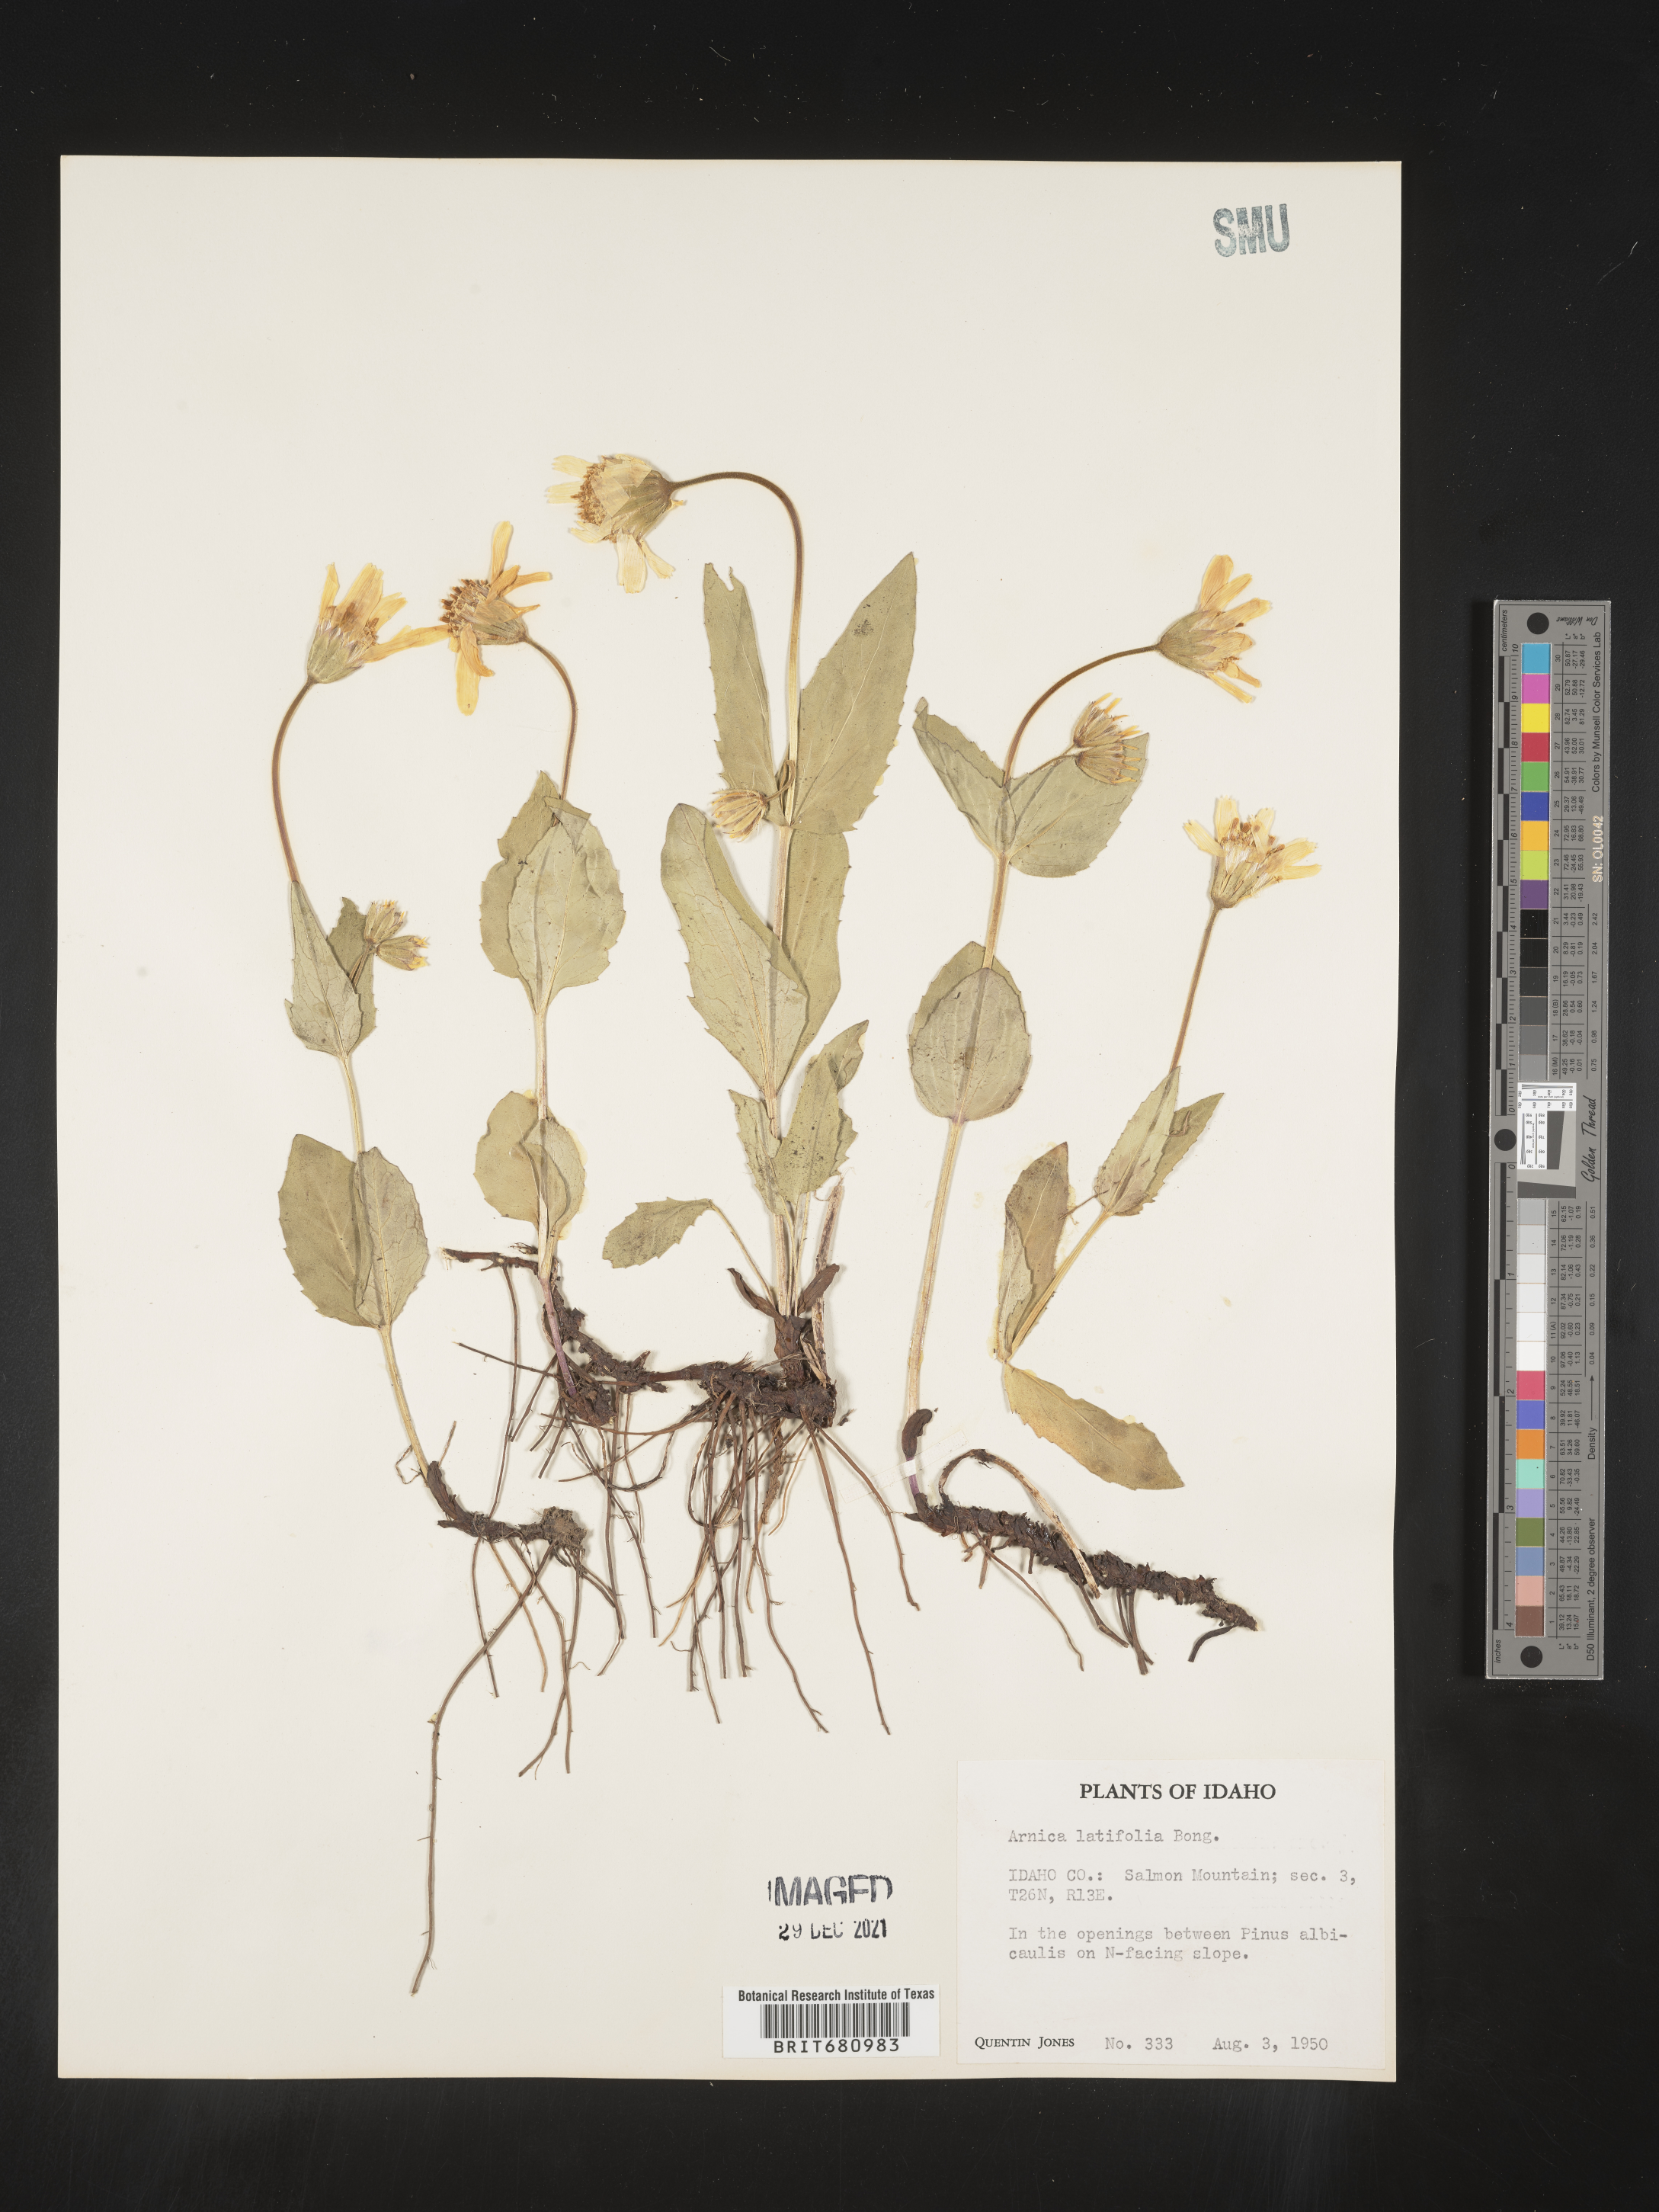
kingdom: Plantae
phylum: Tracheophyta
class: Magnoliopsida
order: Asterales
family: Asteraceae
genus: Arnica
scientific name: Arnica latifolia
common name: Arnica
